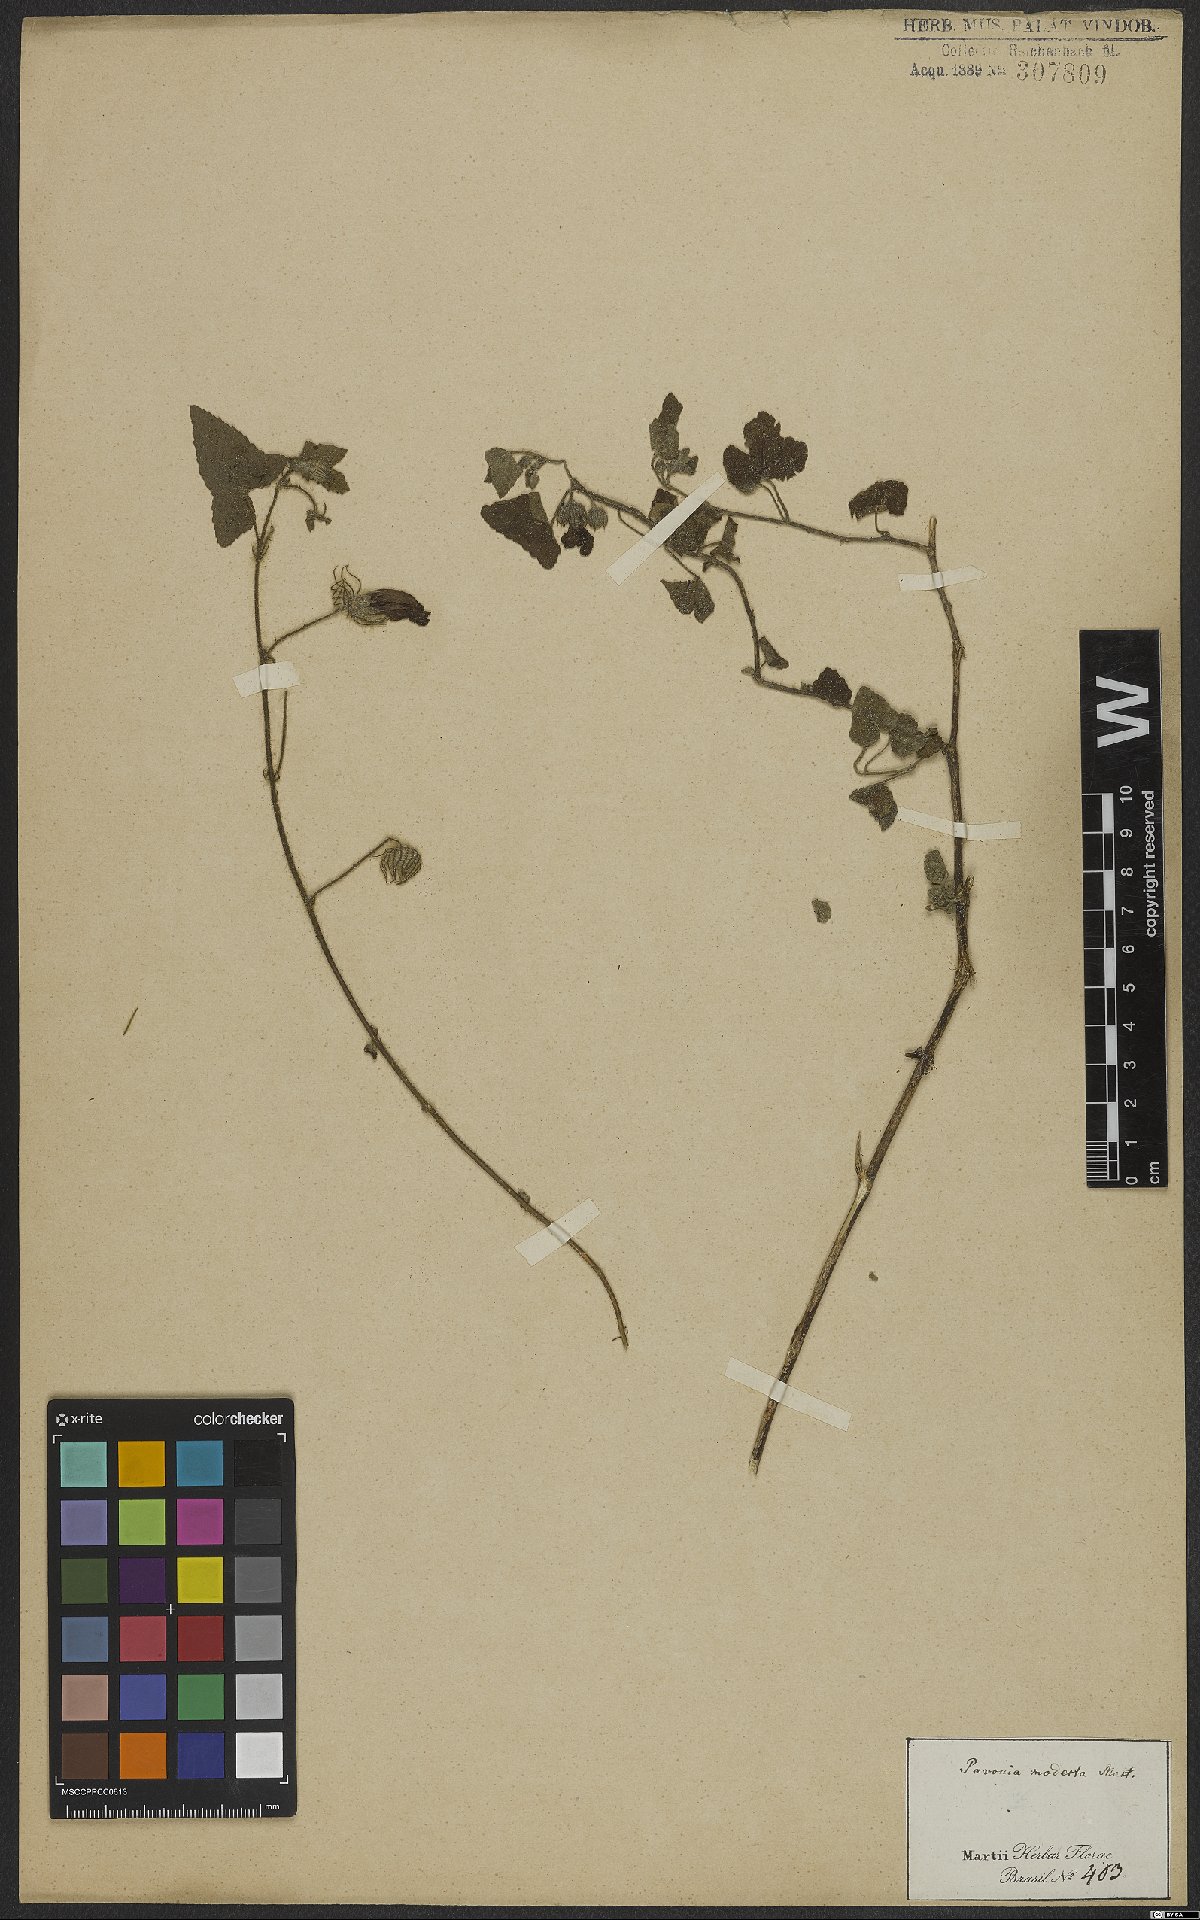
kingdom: Plantae
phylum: Tracheophyta
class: Magnoliopsida
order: Malvales
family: Malvaceae
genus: Pavonia
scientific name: Pavonia cancellata
